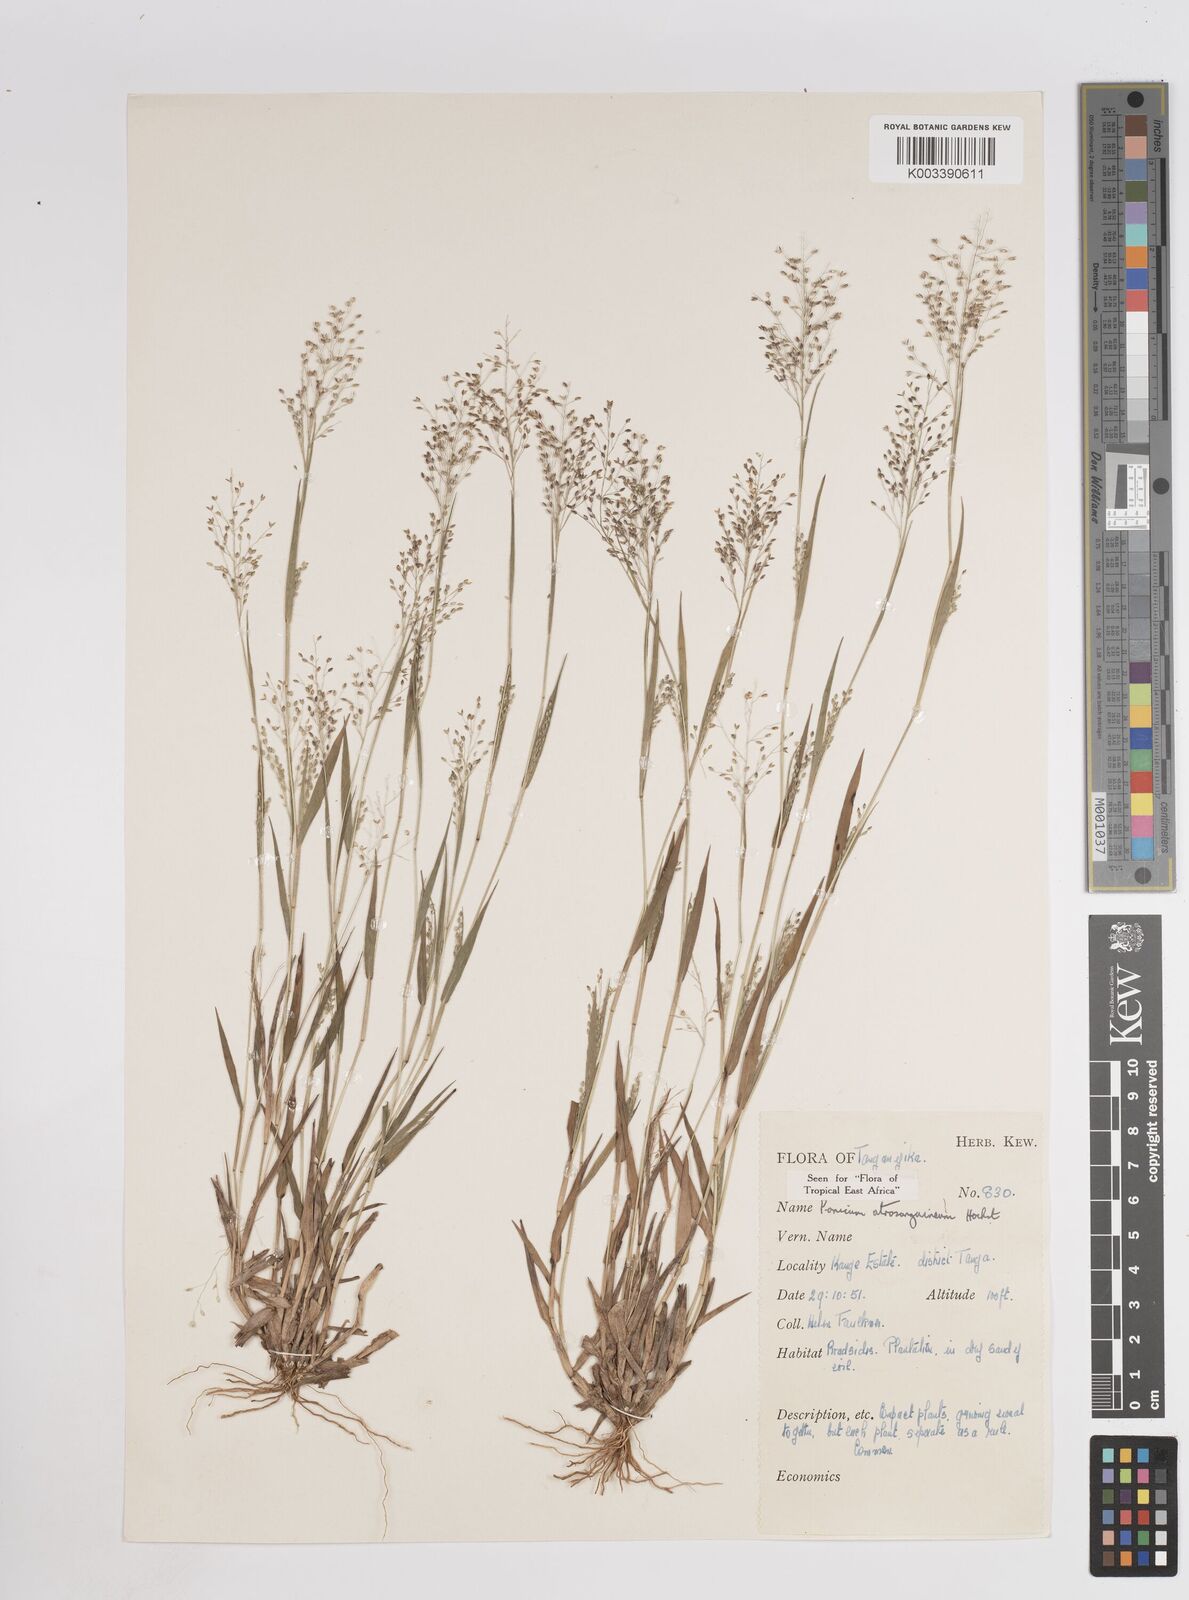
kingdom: Plantae
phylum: Tracheophyta
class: Liliopsida
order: Poales
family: Poaceae
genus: Panicum
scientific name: Panicum atrosanguineum
